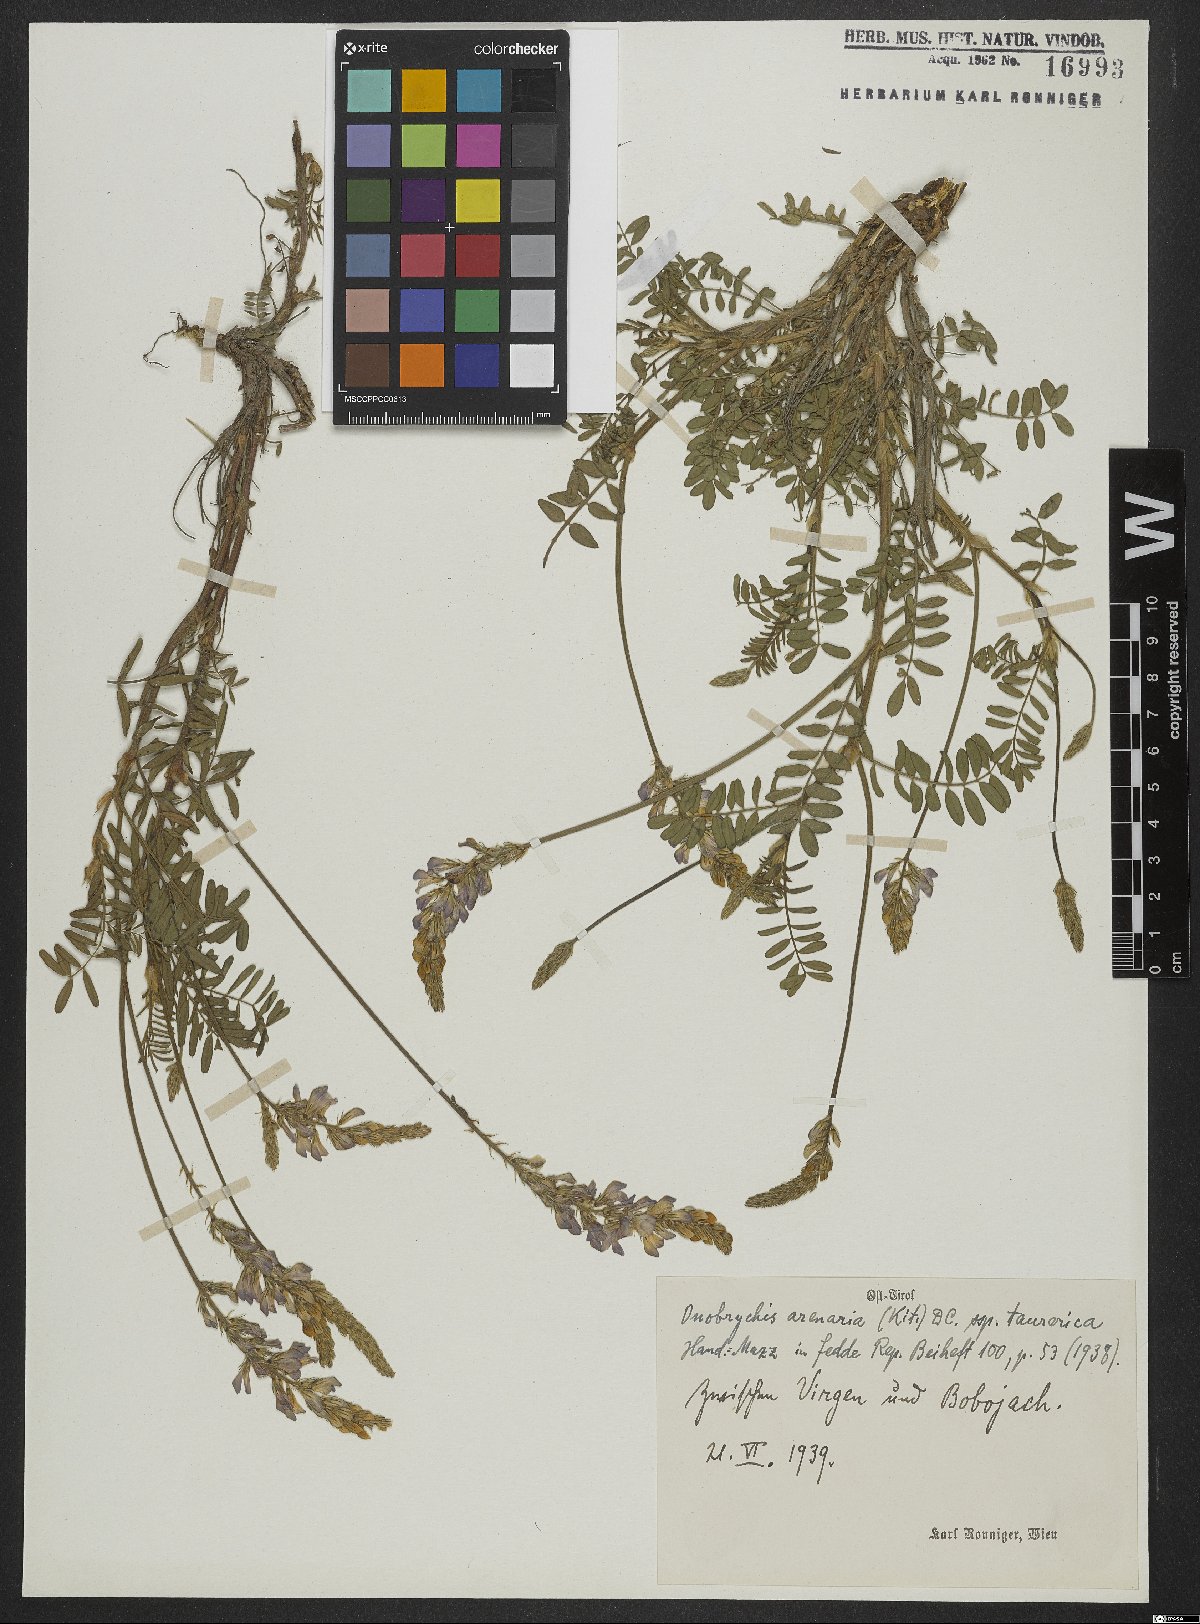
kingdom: Plantae
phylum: Tracheophyta
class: Magnoliopsida
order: Fabales
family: Fabaceae
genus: Onobrychis
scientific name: Onobrychis arenaria
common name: Sand esparcet
